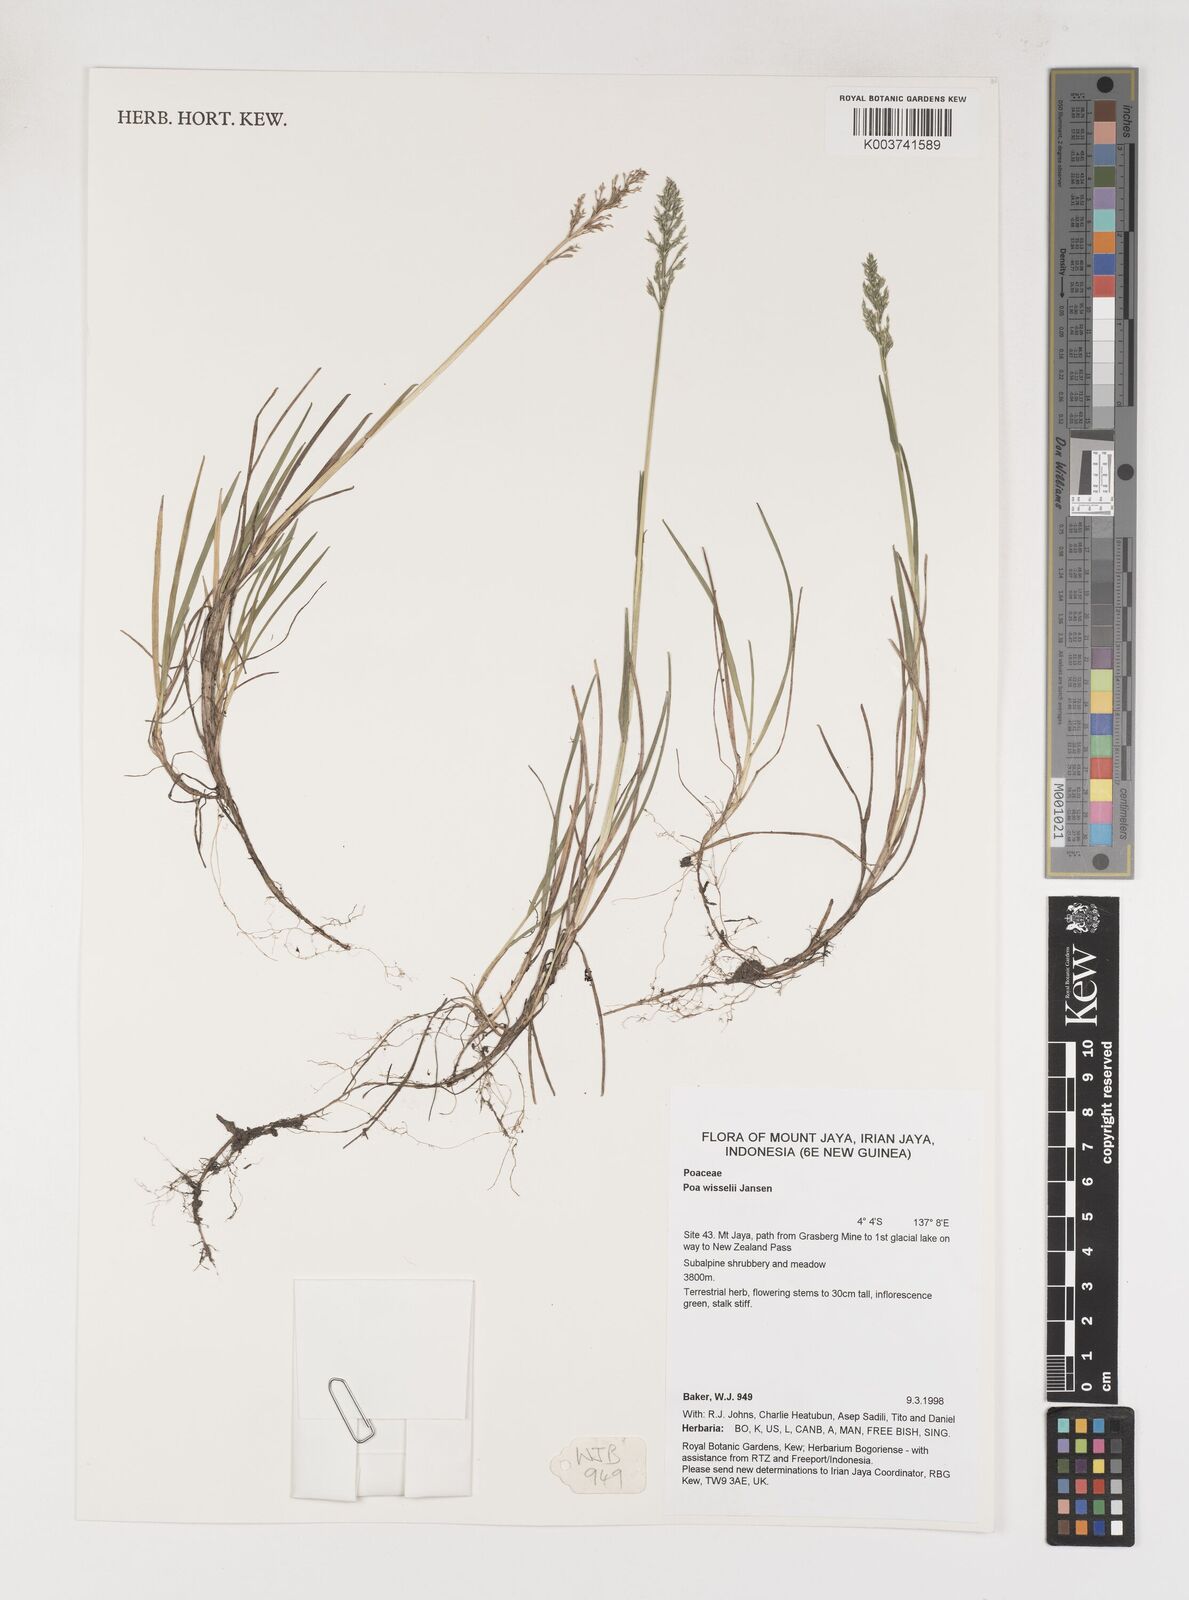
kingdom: Plantae
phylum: Tracheophyta
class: Liliopsida
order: Poales
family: Poaceae
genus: Poa
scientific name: Poa wisselii
